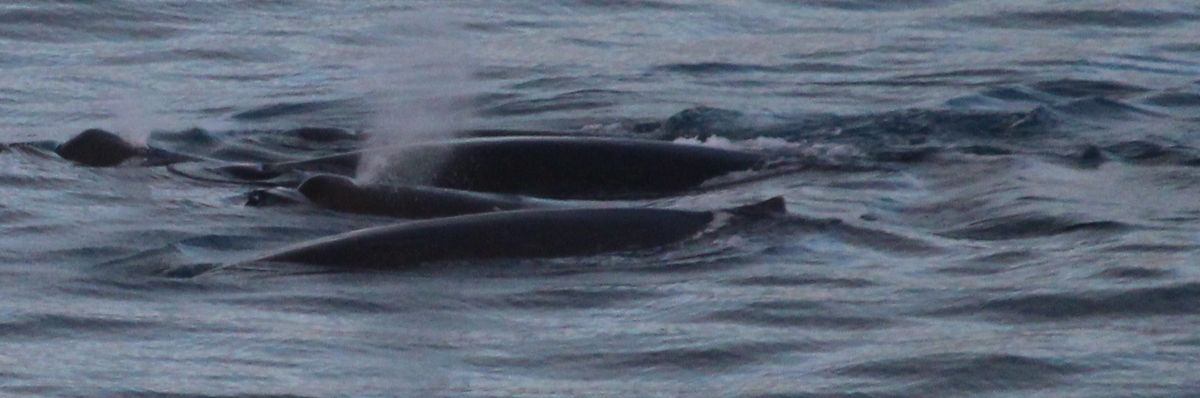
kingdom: Animalia
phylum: Chordata
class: Mammalia
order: Cetacea
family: Hyperoodontidae
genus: Hyperoodon
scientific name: Hyperoodon planifrons
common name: Southern Bottlenose Whale
